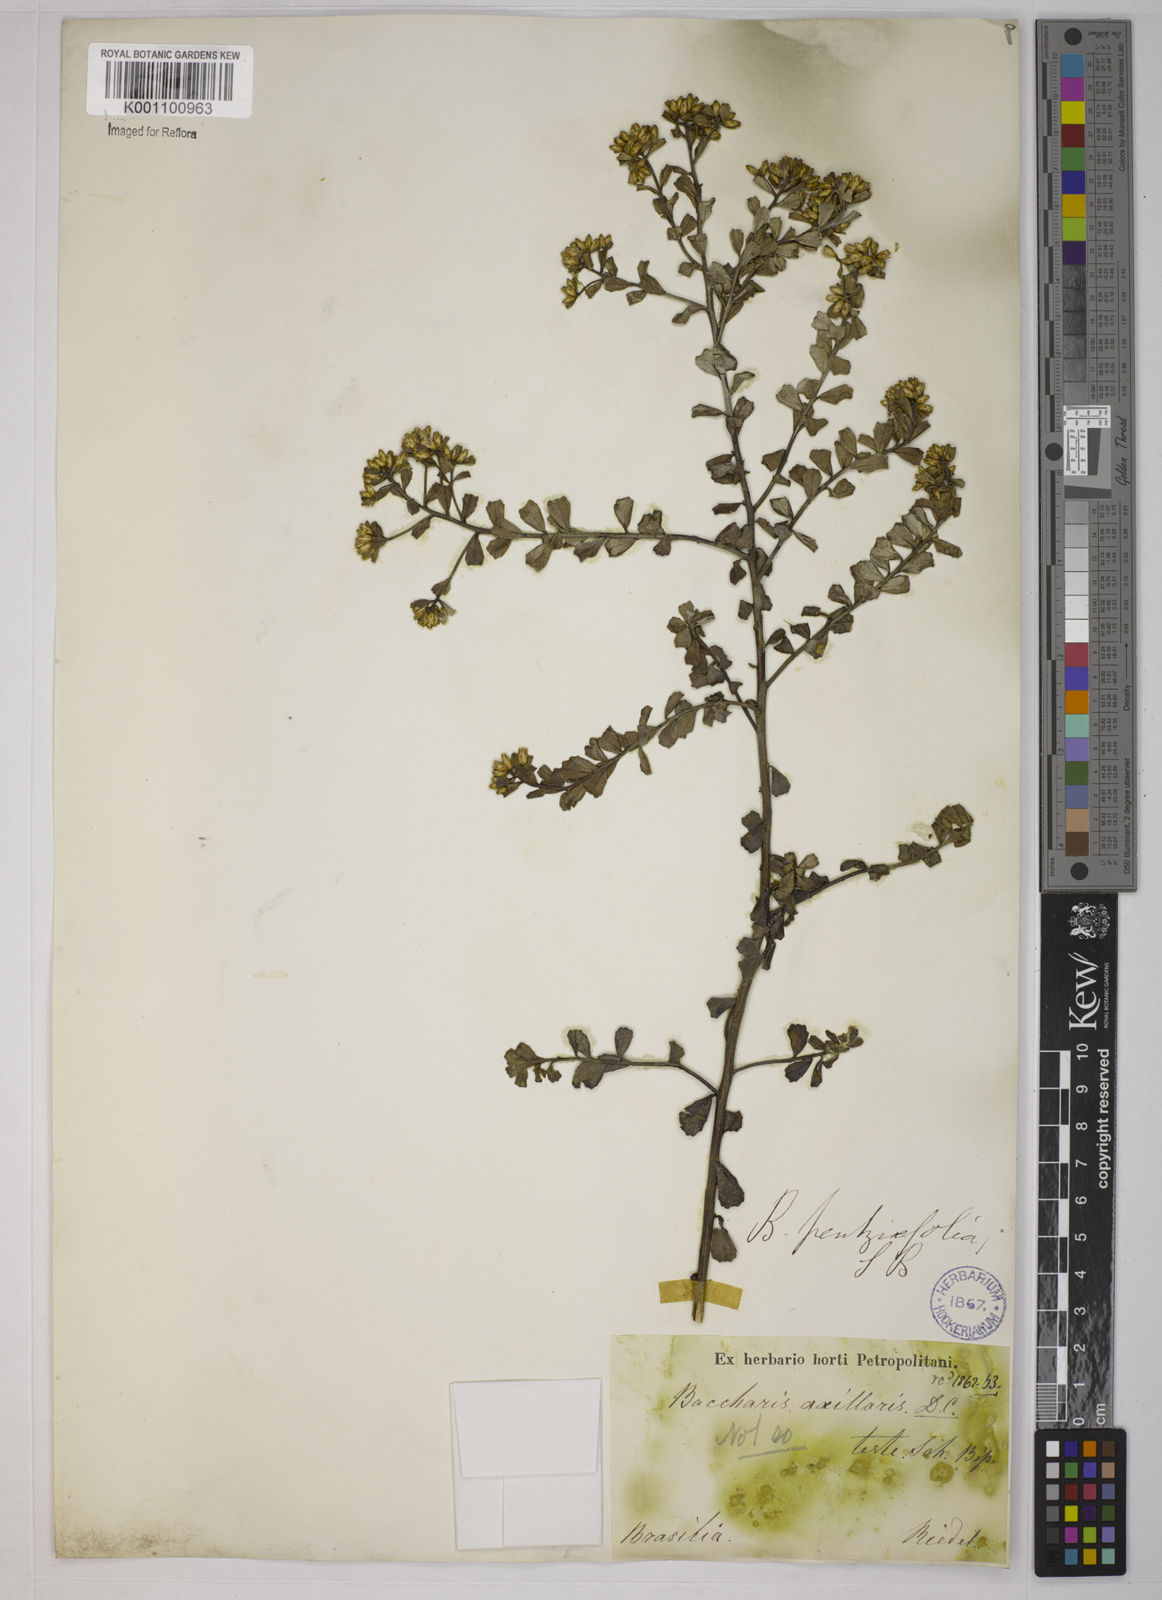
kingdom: Plantae
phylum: Tracheophyta
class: Magnoliopsida
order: Asterales
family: Asteraceae
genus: Baccharis
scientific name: Baccharis pentziifolia
